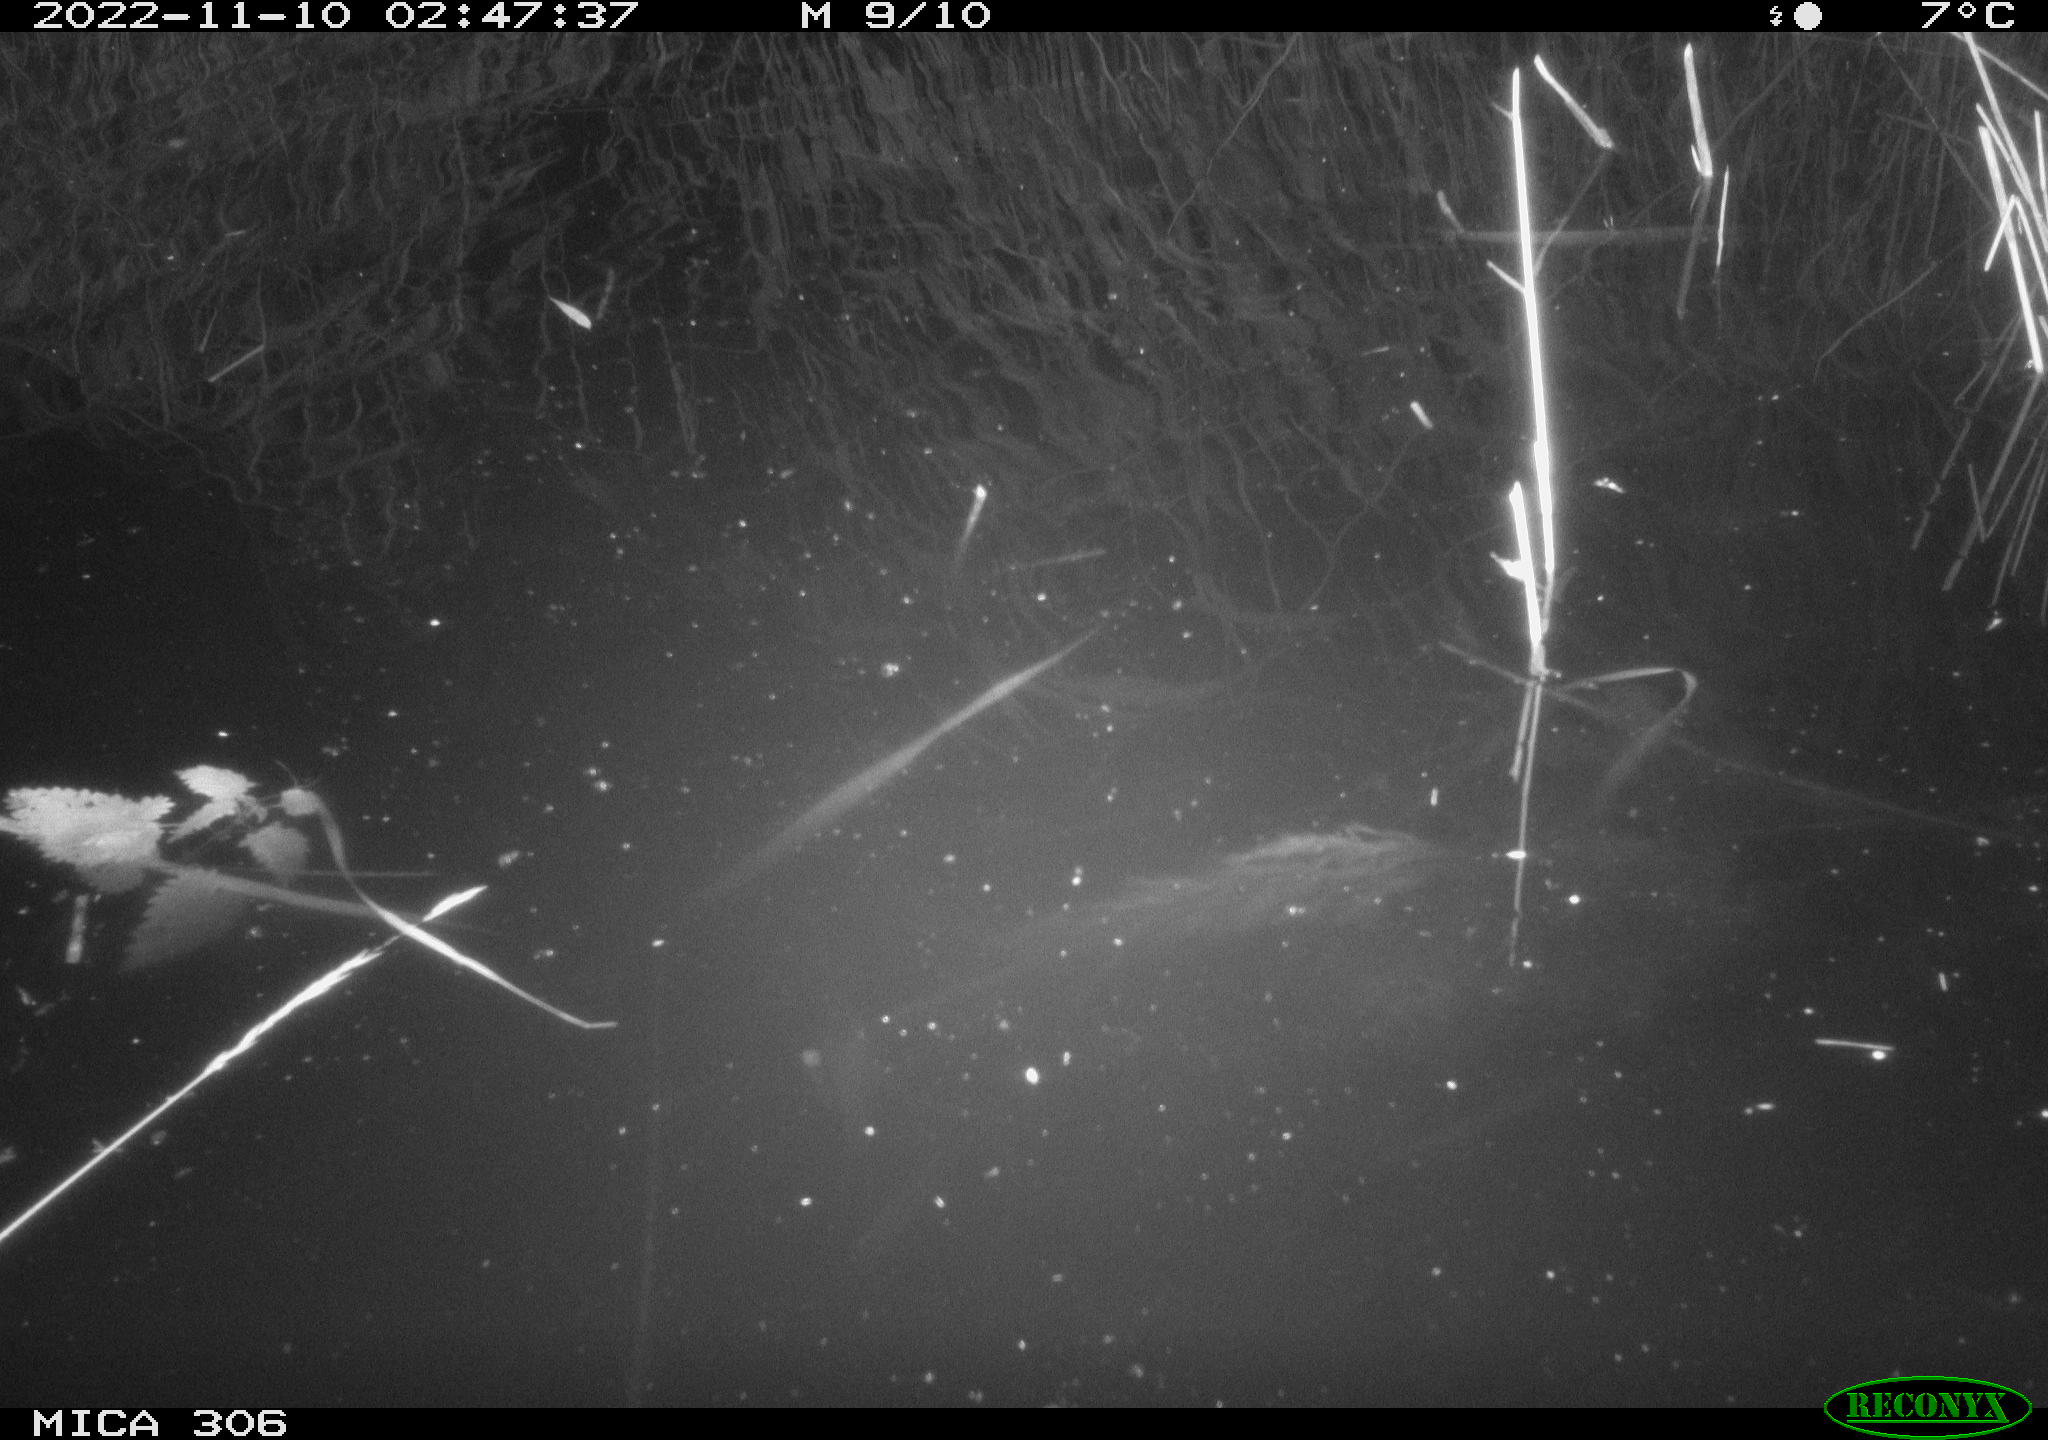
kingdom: Animalia
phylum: Chordata
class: Mammalia
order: Rodentia
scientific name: Rodentia
